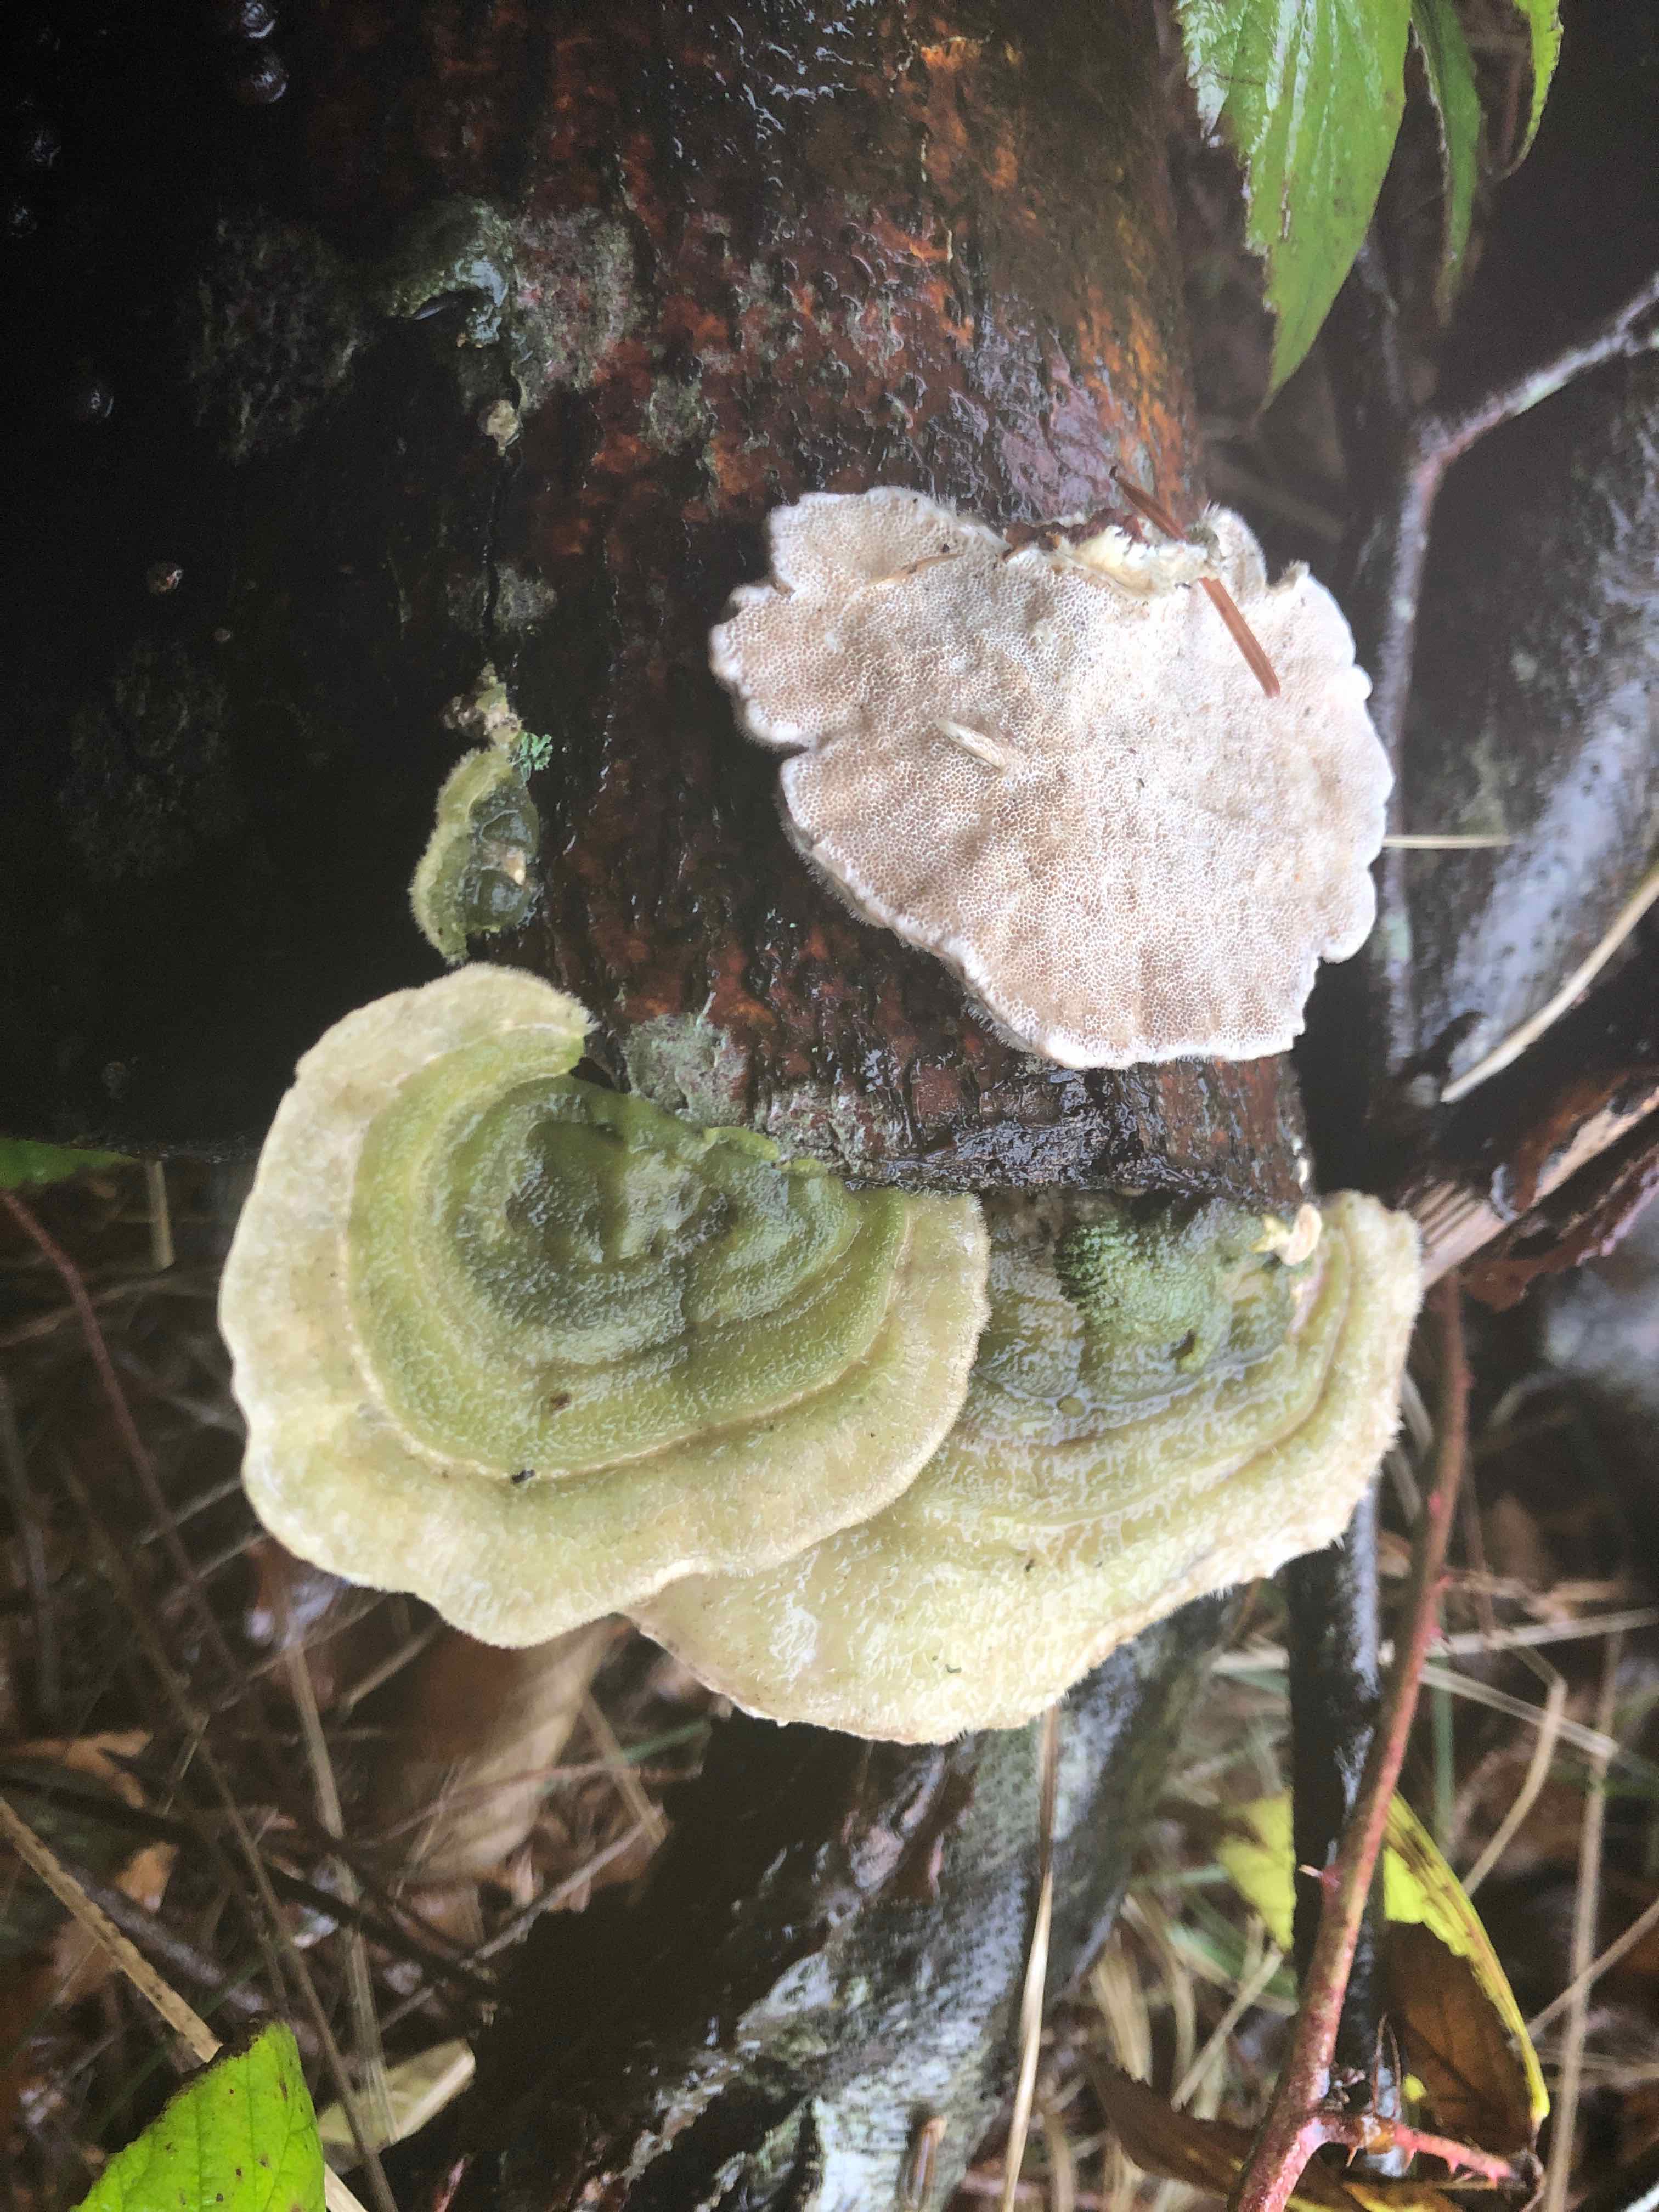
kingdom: Fungi
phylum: Basidiomycota
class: Agaricomycetes
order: Polyporales
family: Polyporaceae
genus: Trametes
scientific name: Trametes hirsuta
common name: håret læderporesvamp
